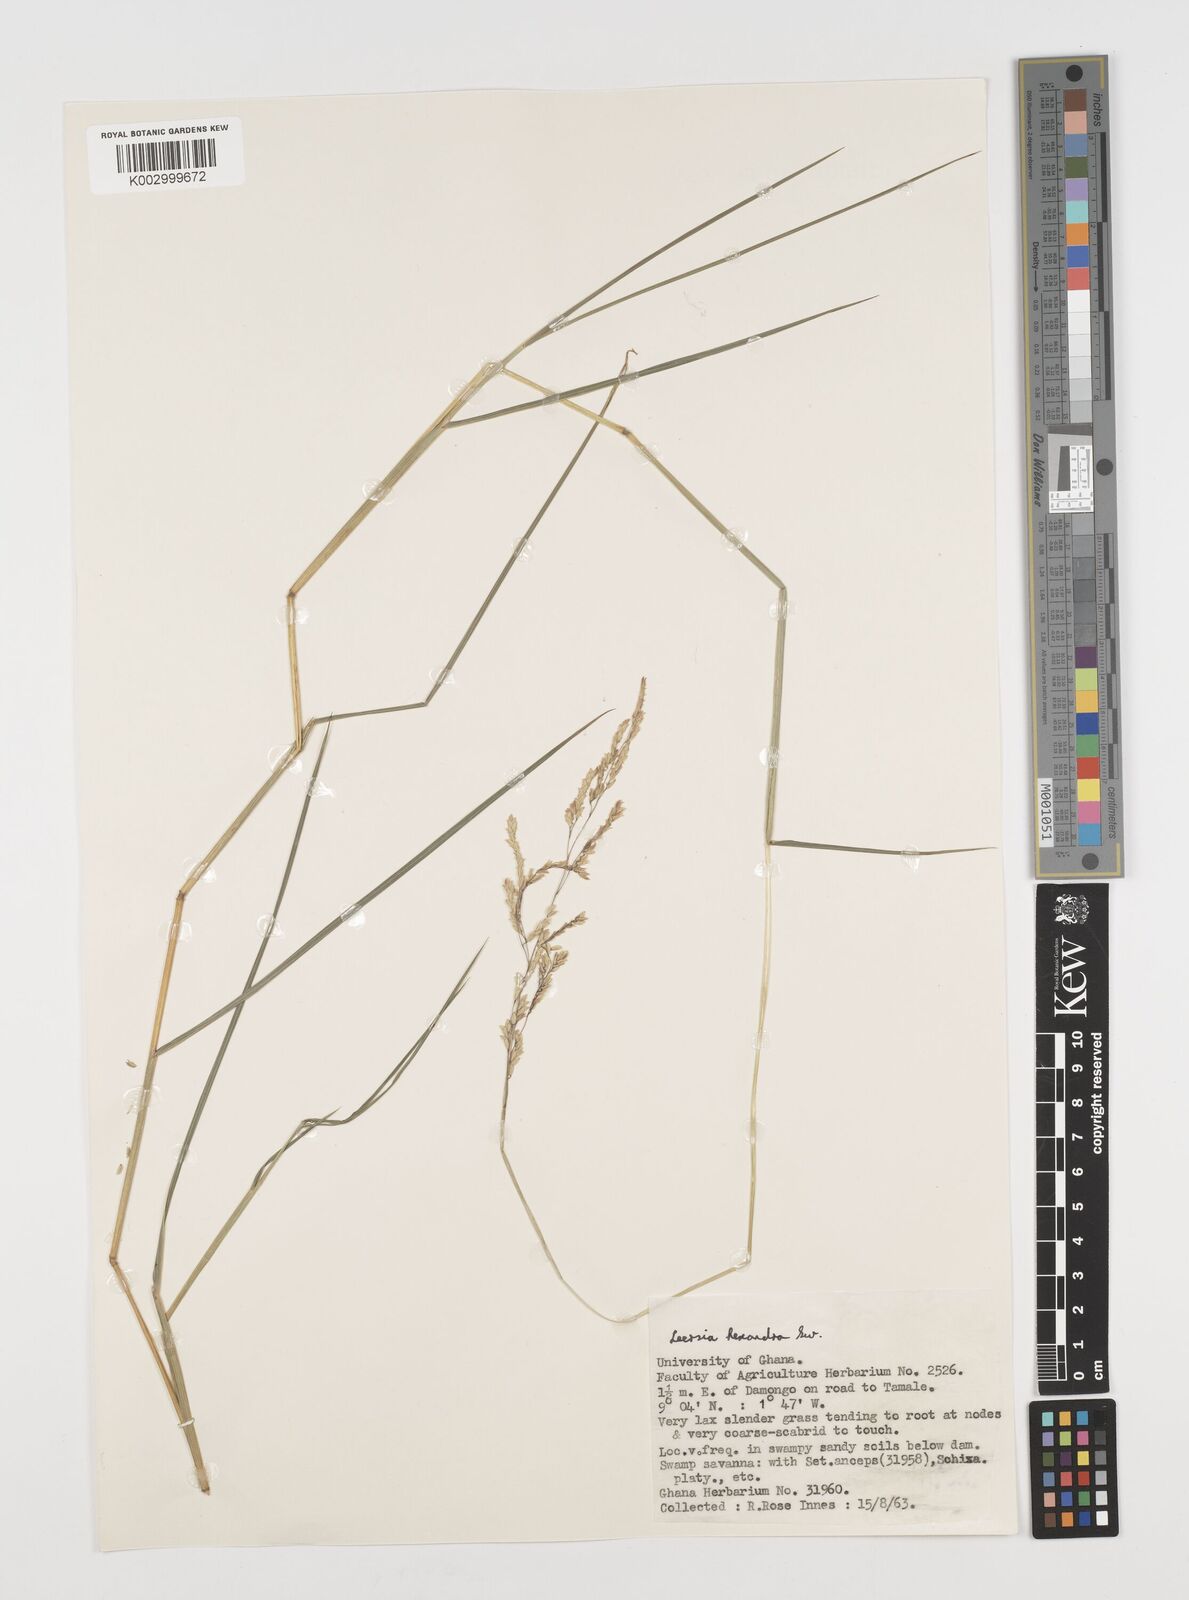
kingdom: Plantae
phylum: Tracheophyta
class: Liliopsida
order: Poales
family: Poaceae
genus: Leersia
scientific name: Leersia hexandra
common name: Southern cut grass
